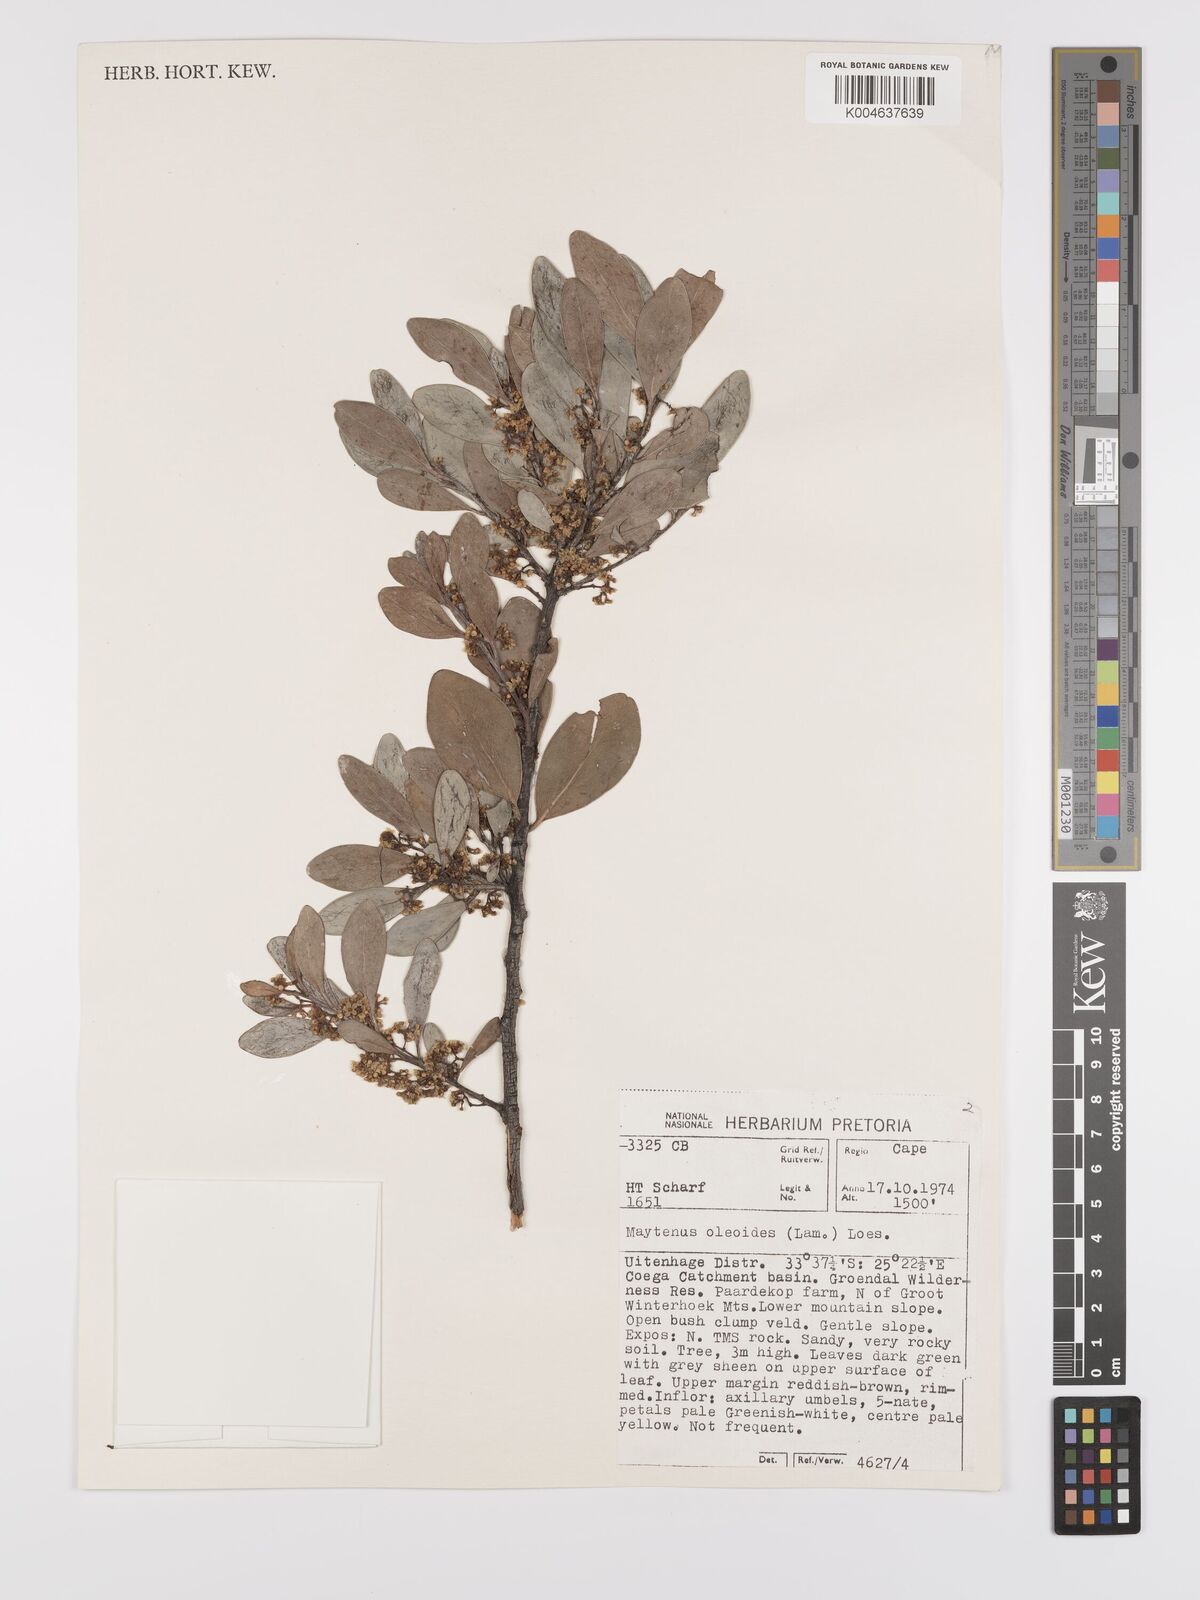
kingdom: Plantae
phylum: Tracheophyta
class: Magnoliopsida
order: Celastrales
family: Celastraceae
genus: Gymnosporia
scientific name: Gymnosporia laurina
